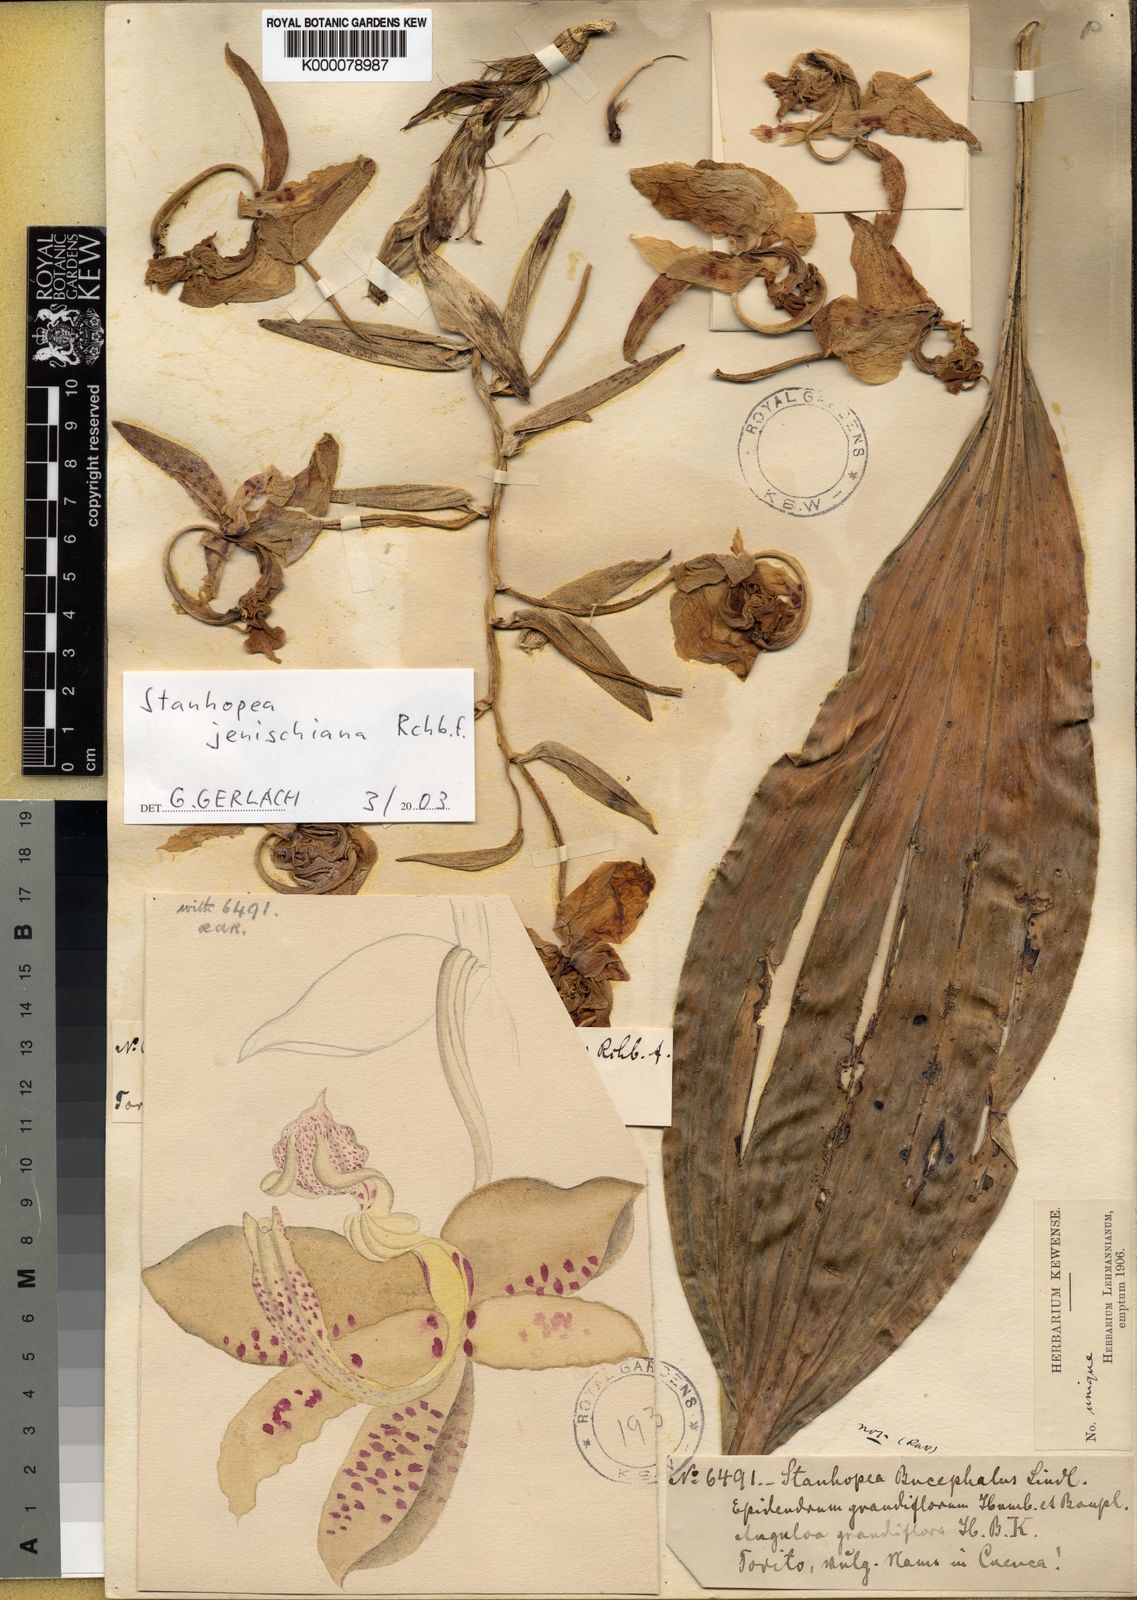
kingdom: Plantae
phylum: Tracheophyta
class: Liliopsida
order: Asparagales
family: Orchidaceae
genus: Stanhopea
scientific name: Stanhopea jenischiana
